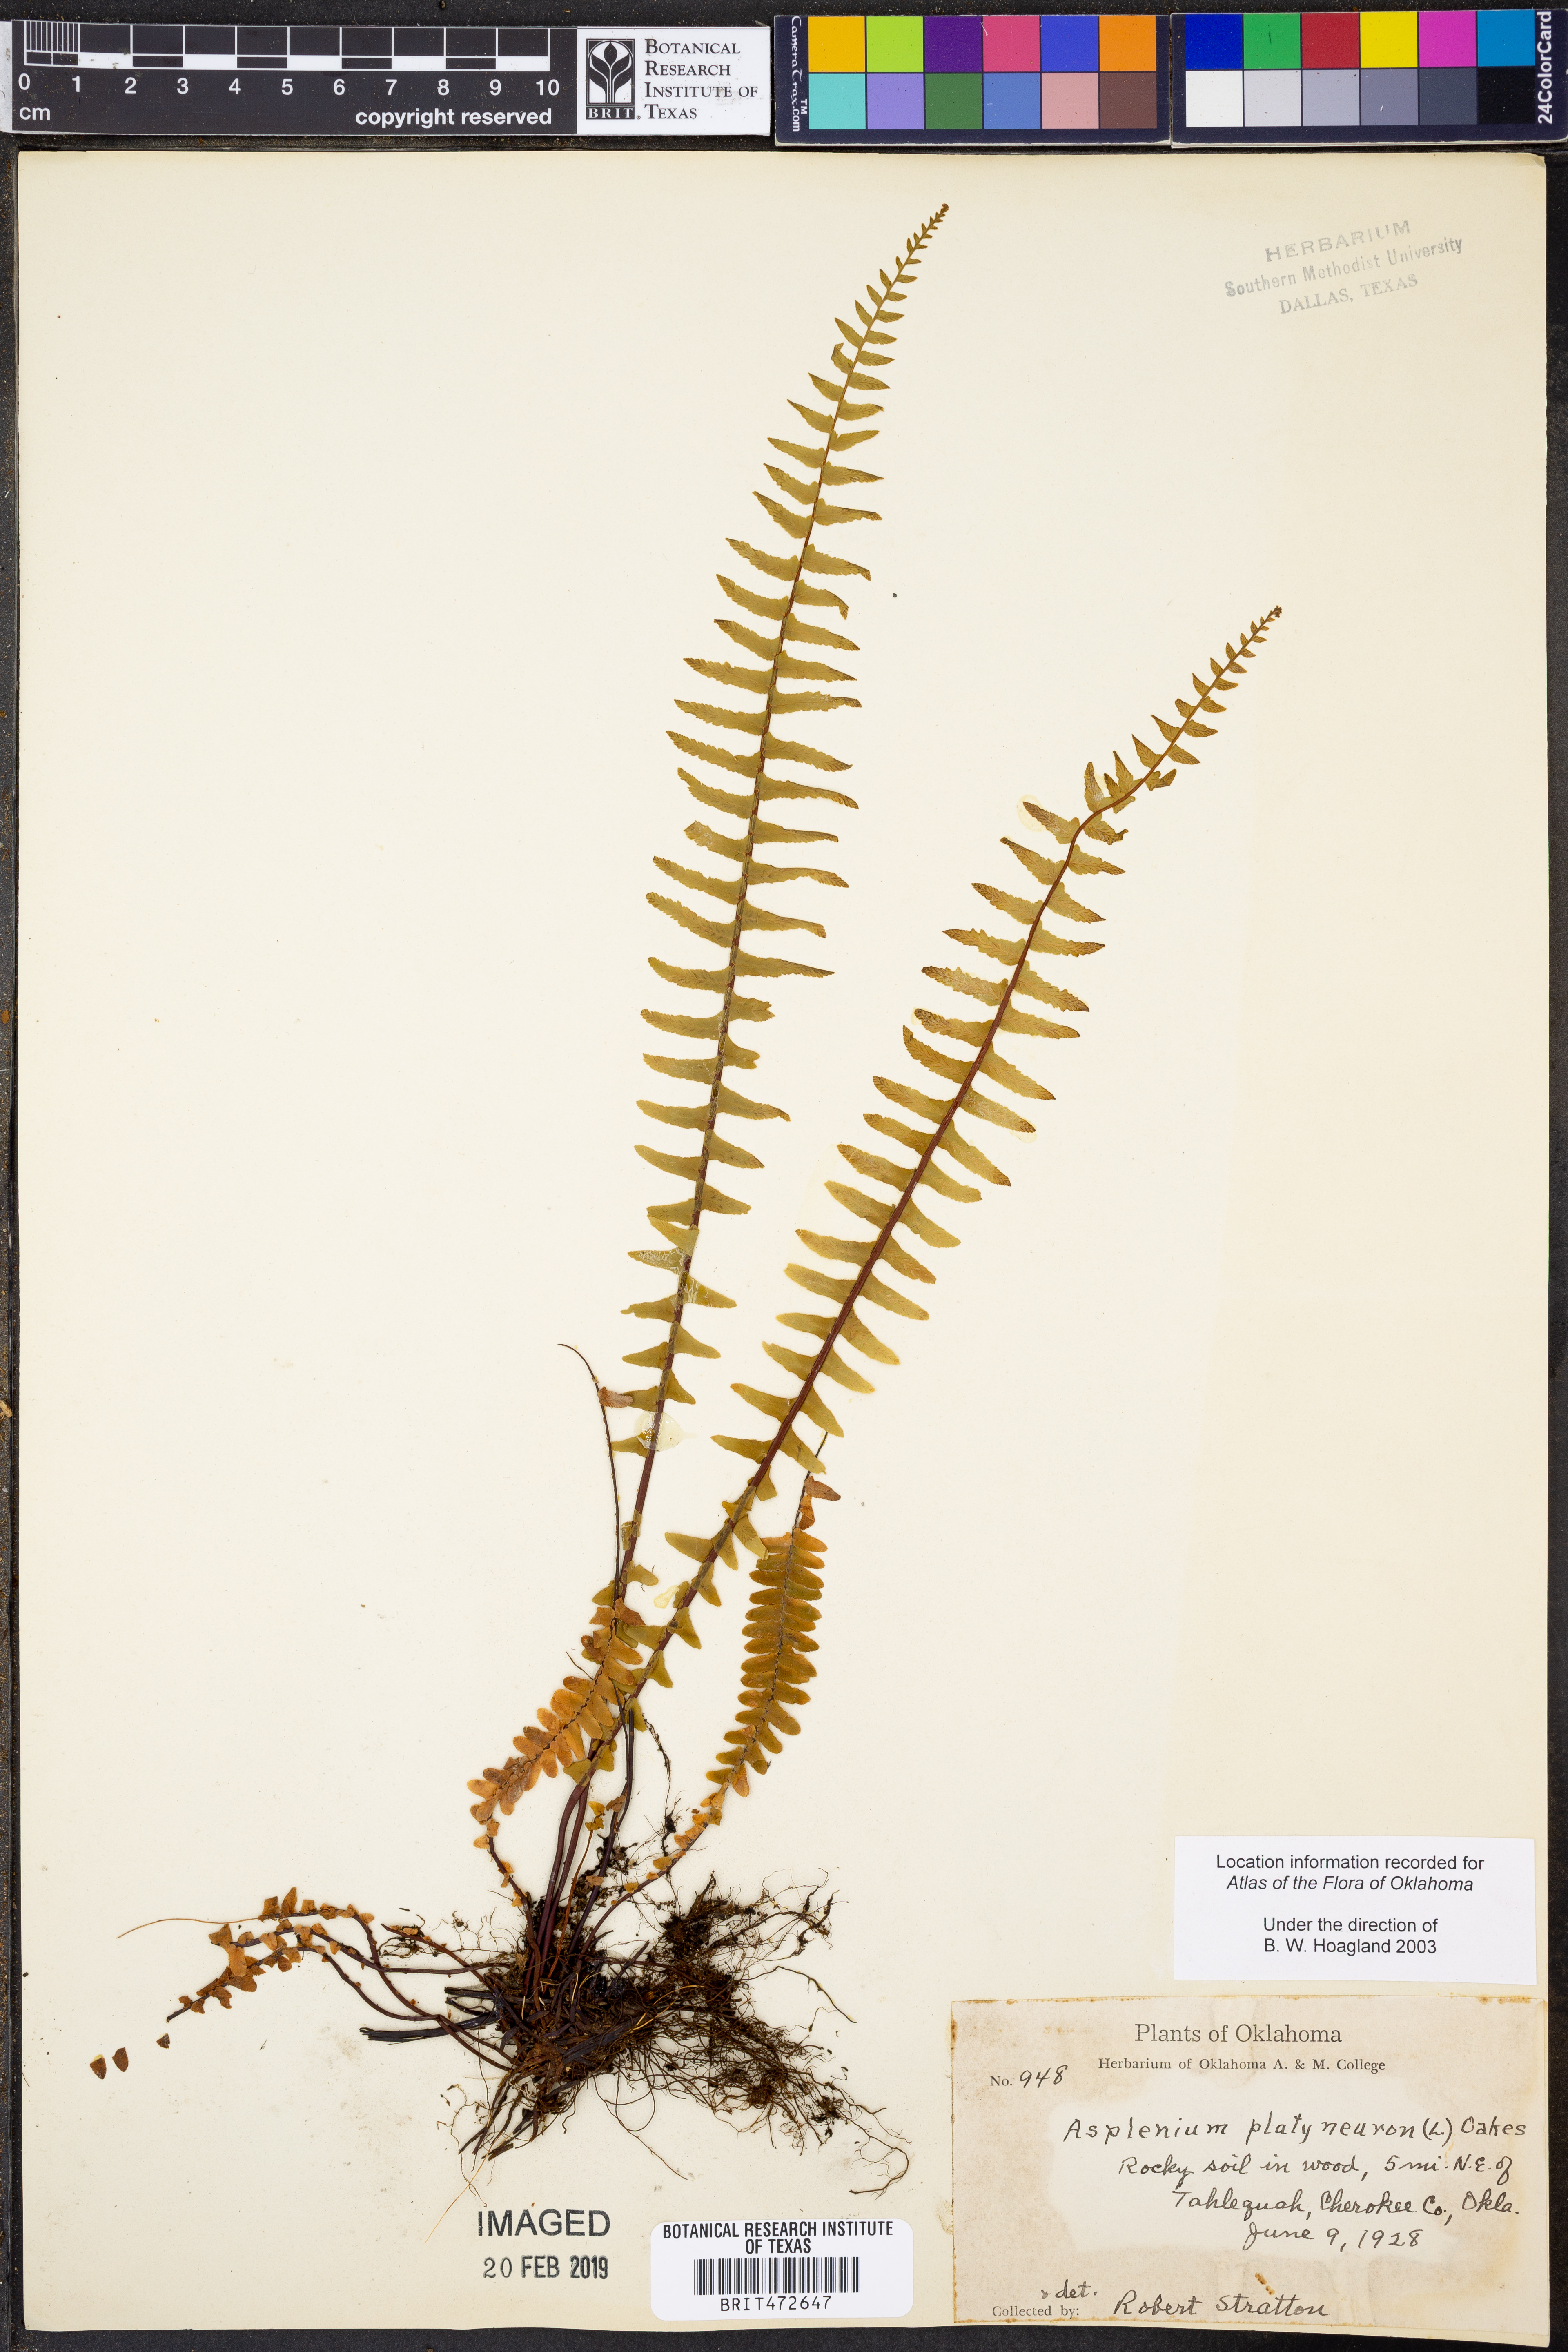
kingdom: Plantae
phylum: Tracheophyta
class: Polypodiopsida
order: Polypodiales
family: Aspleniaceae
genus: Asplenium
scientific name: Asplenium platyneuron
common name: Ebony spleenwort
